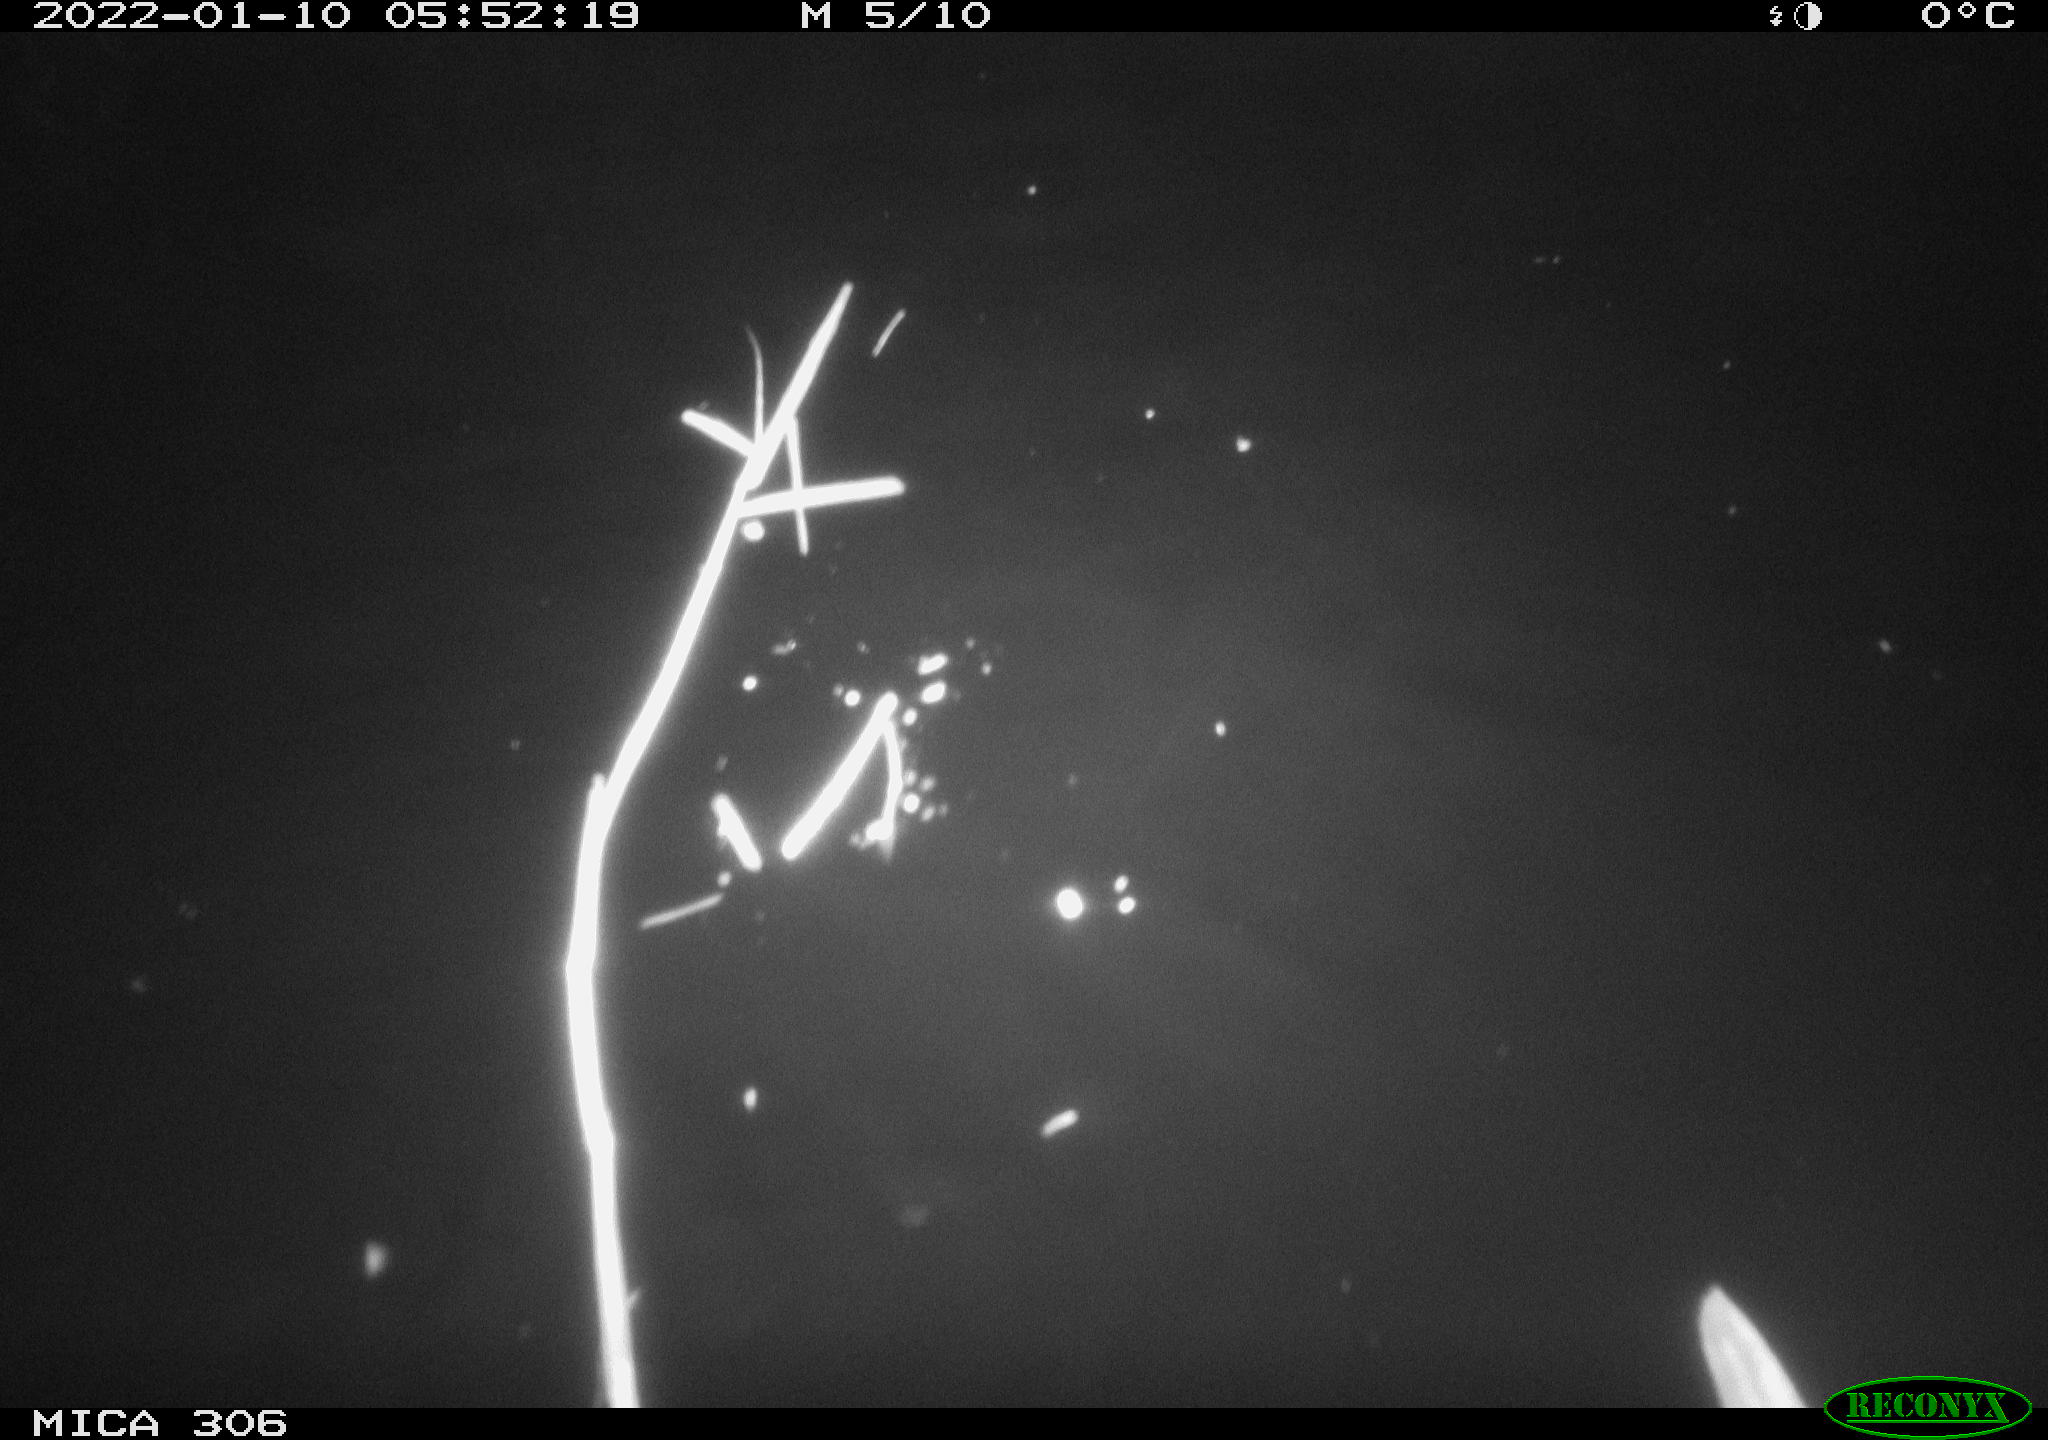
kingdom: Animalia
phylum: Chordata
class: Mammalia
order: Rodentia
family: Cricetidae
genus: Ondatra
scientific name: Ondatra zibethicus
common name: Muskrat
